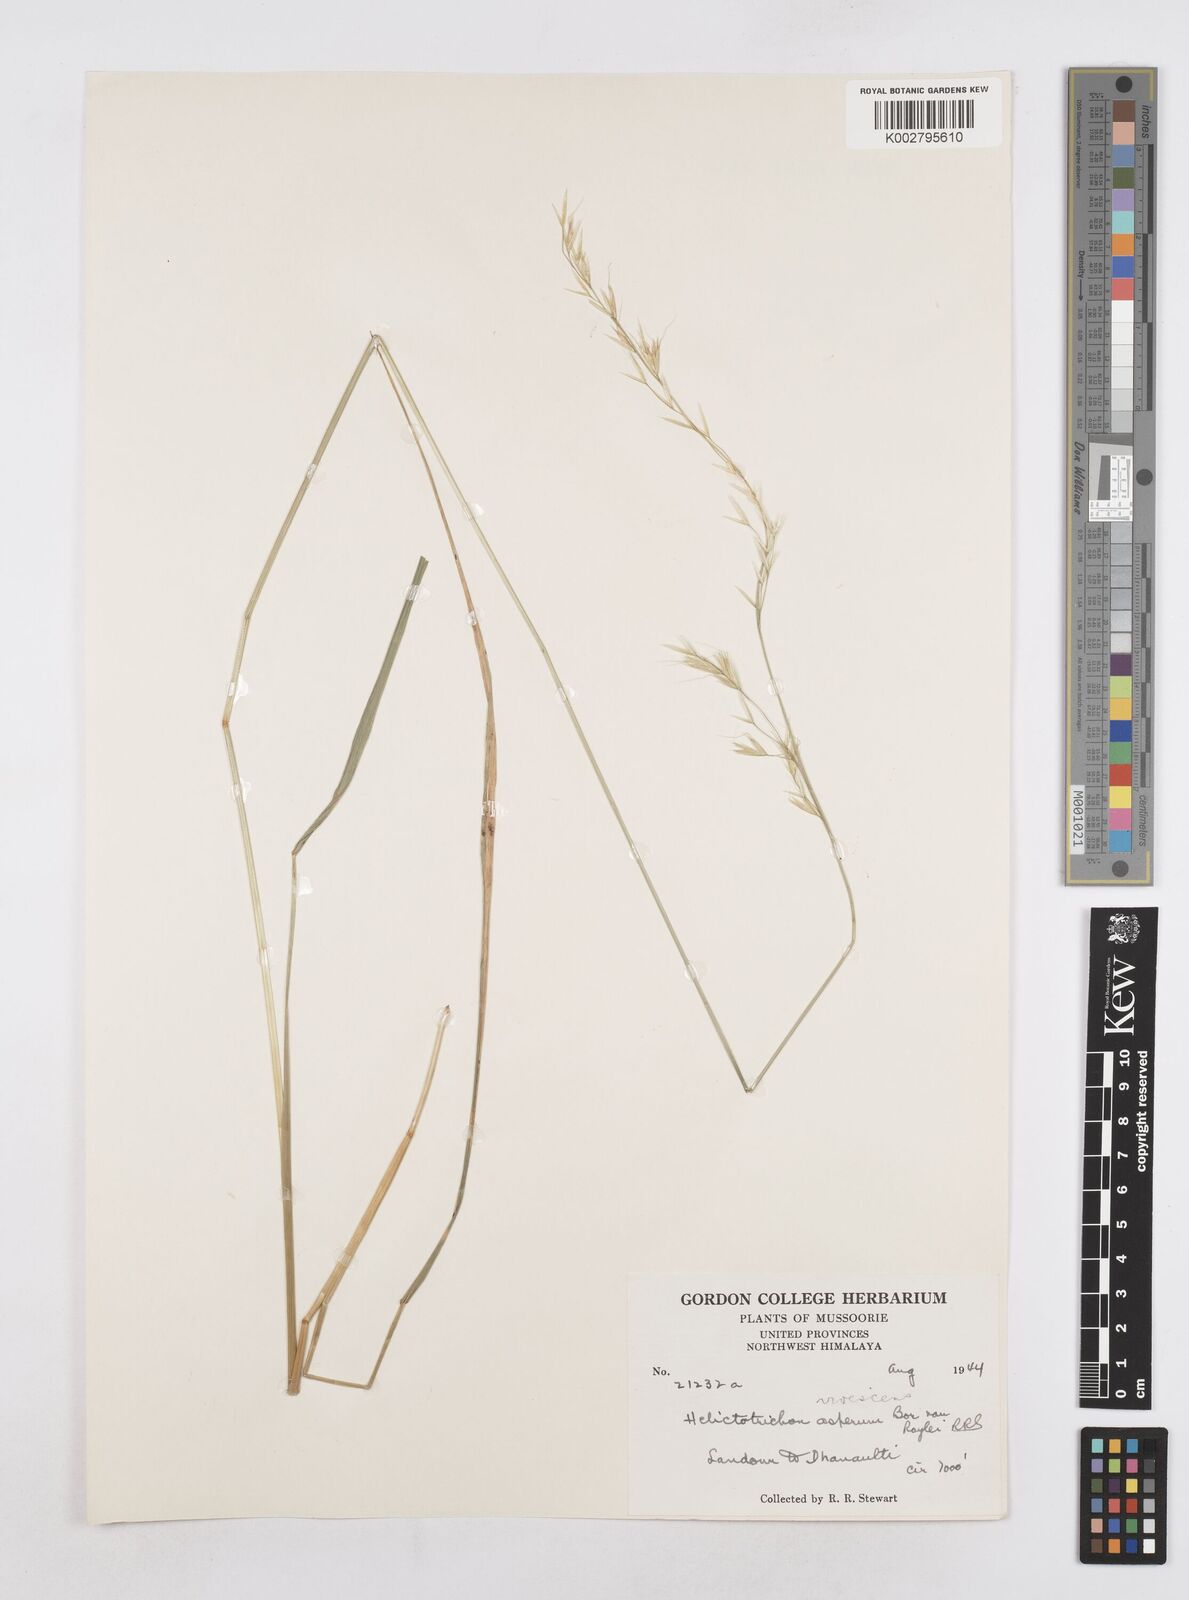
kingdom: Plantae
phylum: Tracheophyta
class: Liliopsida
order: Poales
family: Poaceae
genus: Helictotrichon
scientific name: Helictotrichon
